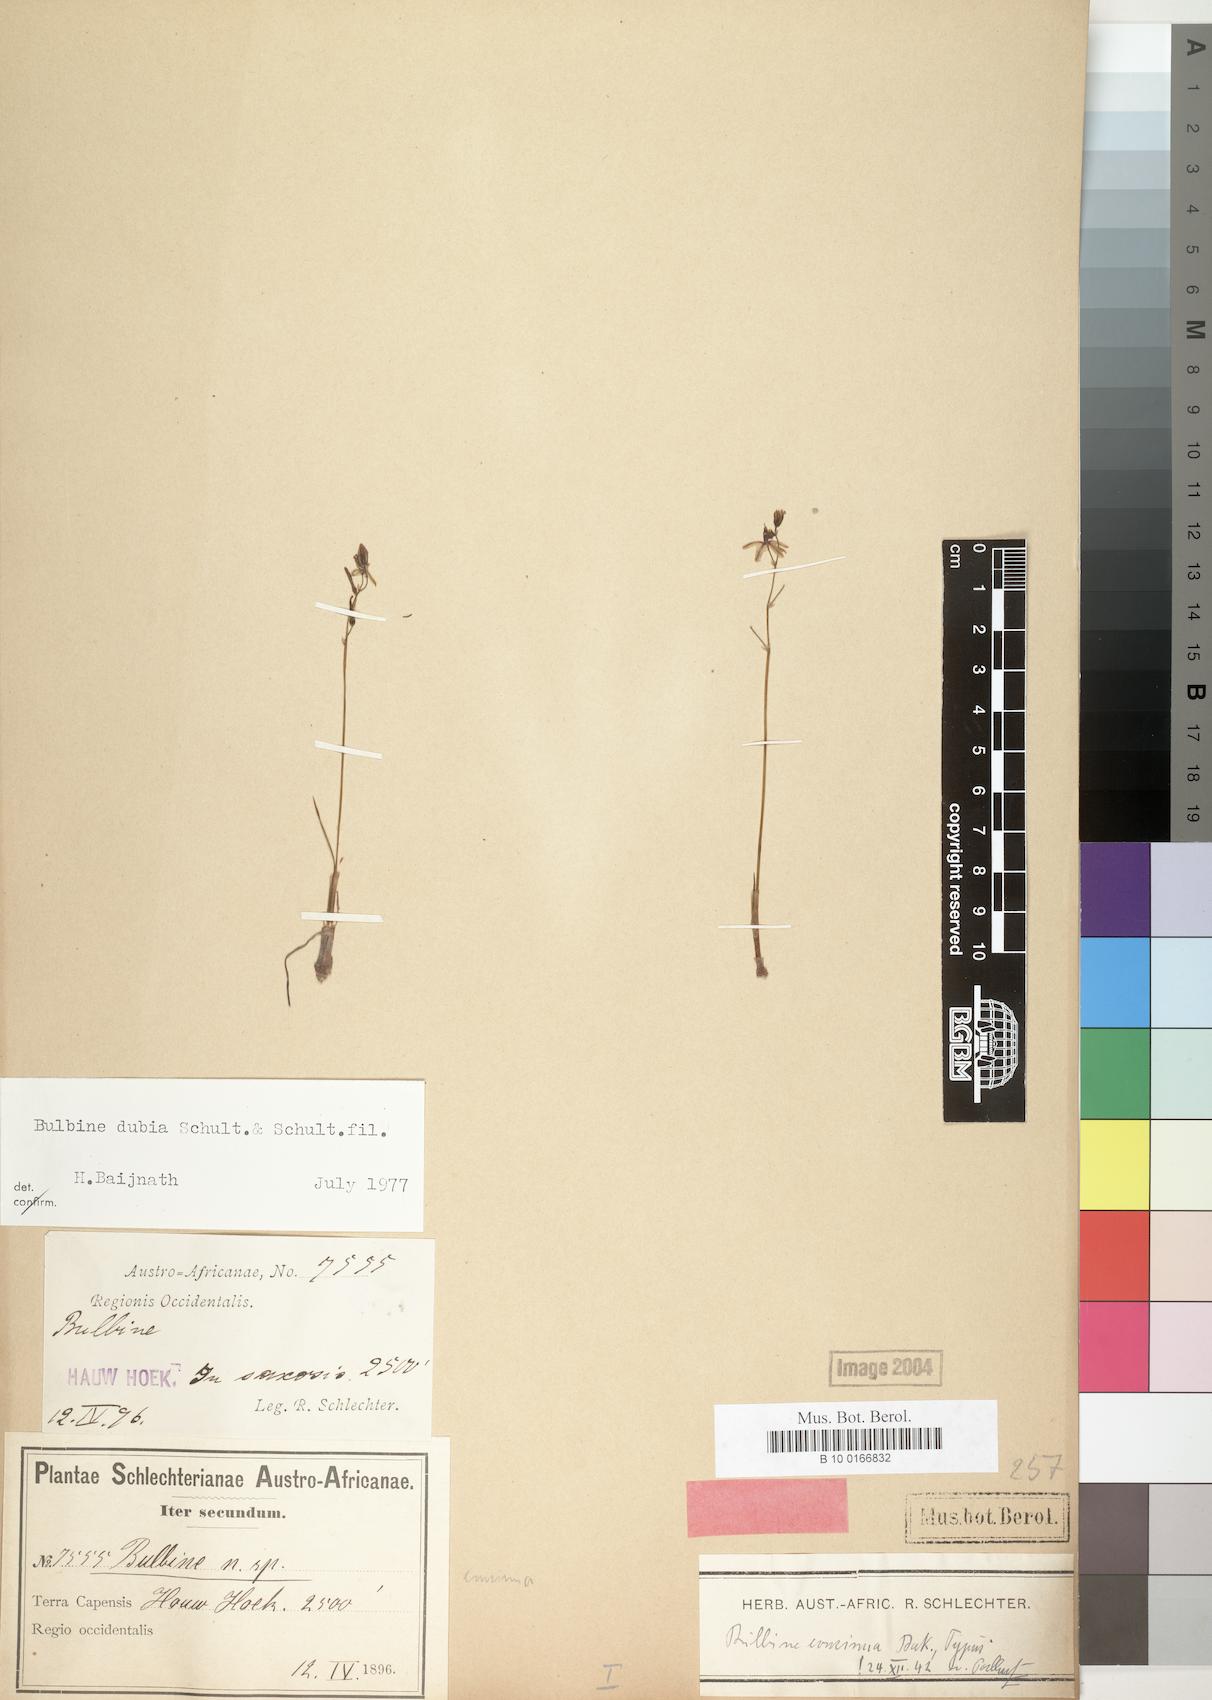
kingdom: Plantae
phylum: Tracheophyta
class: Liliopsida
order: Asparagales
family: Asphodelaceae
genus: Bulbine
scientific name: Bulbine favosa
